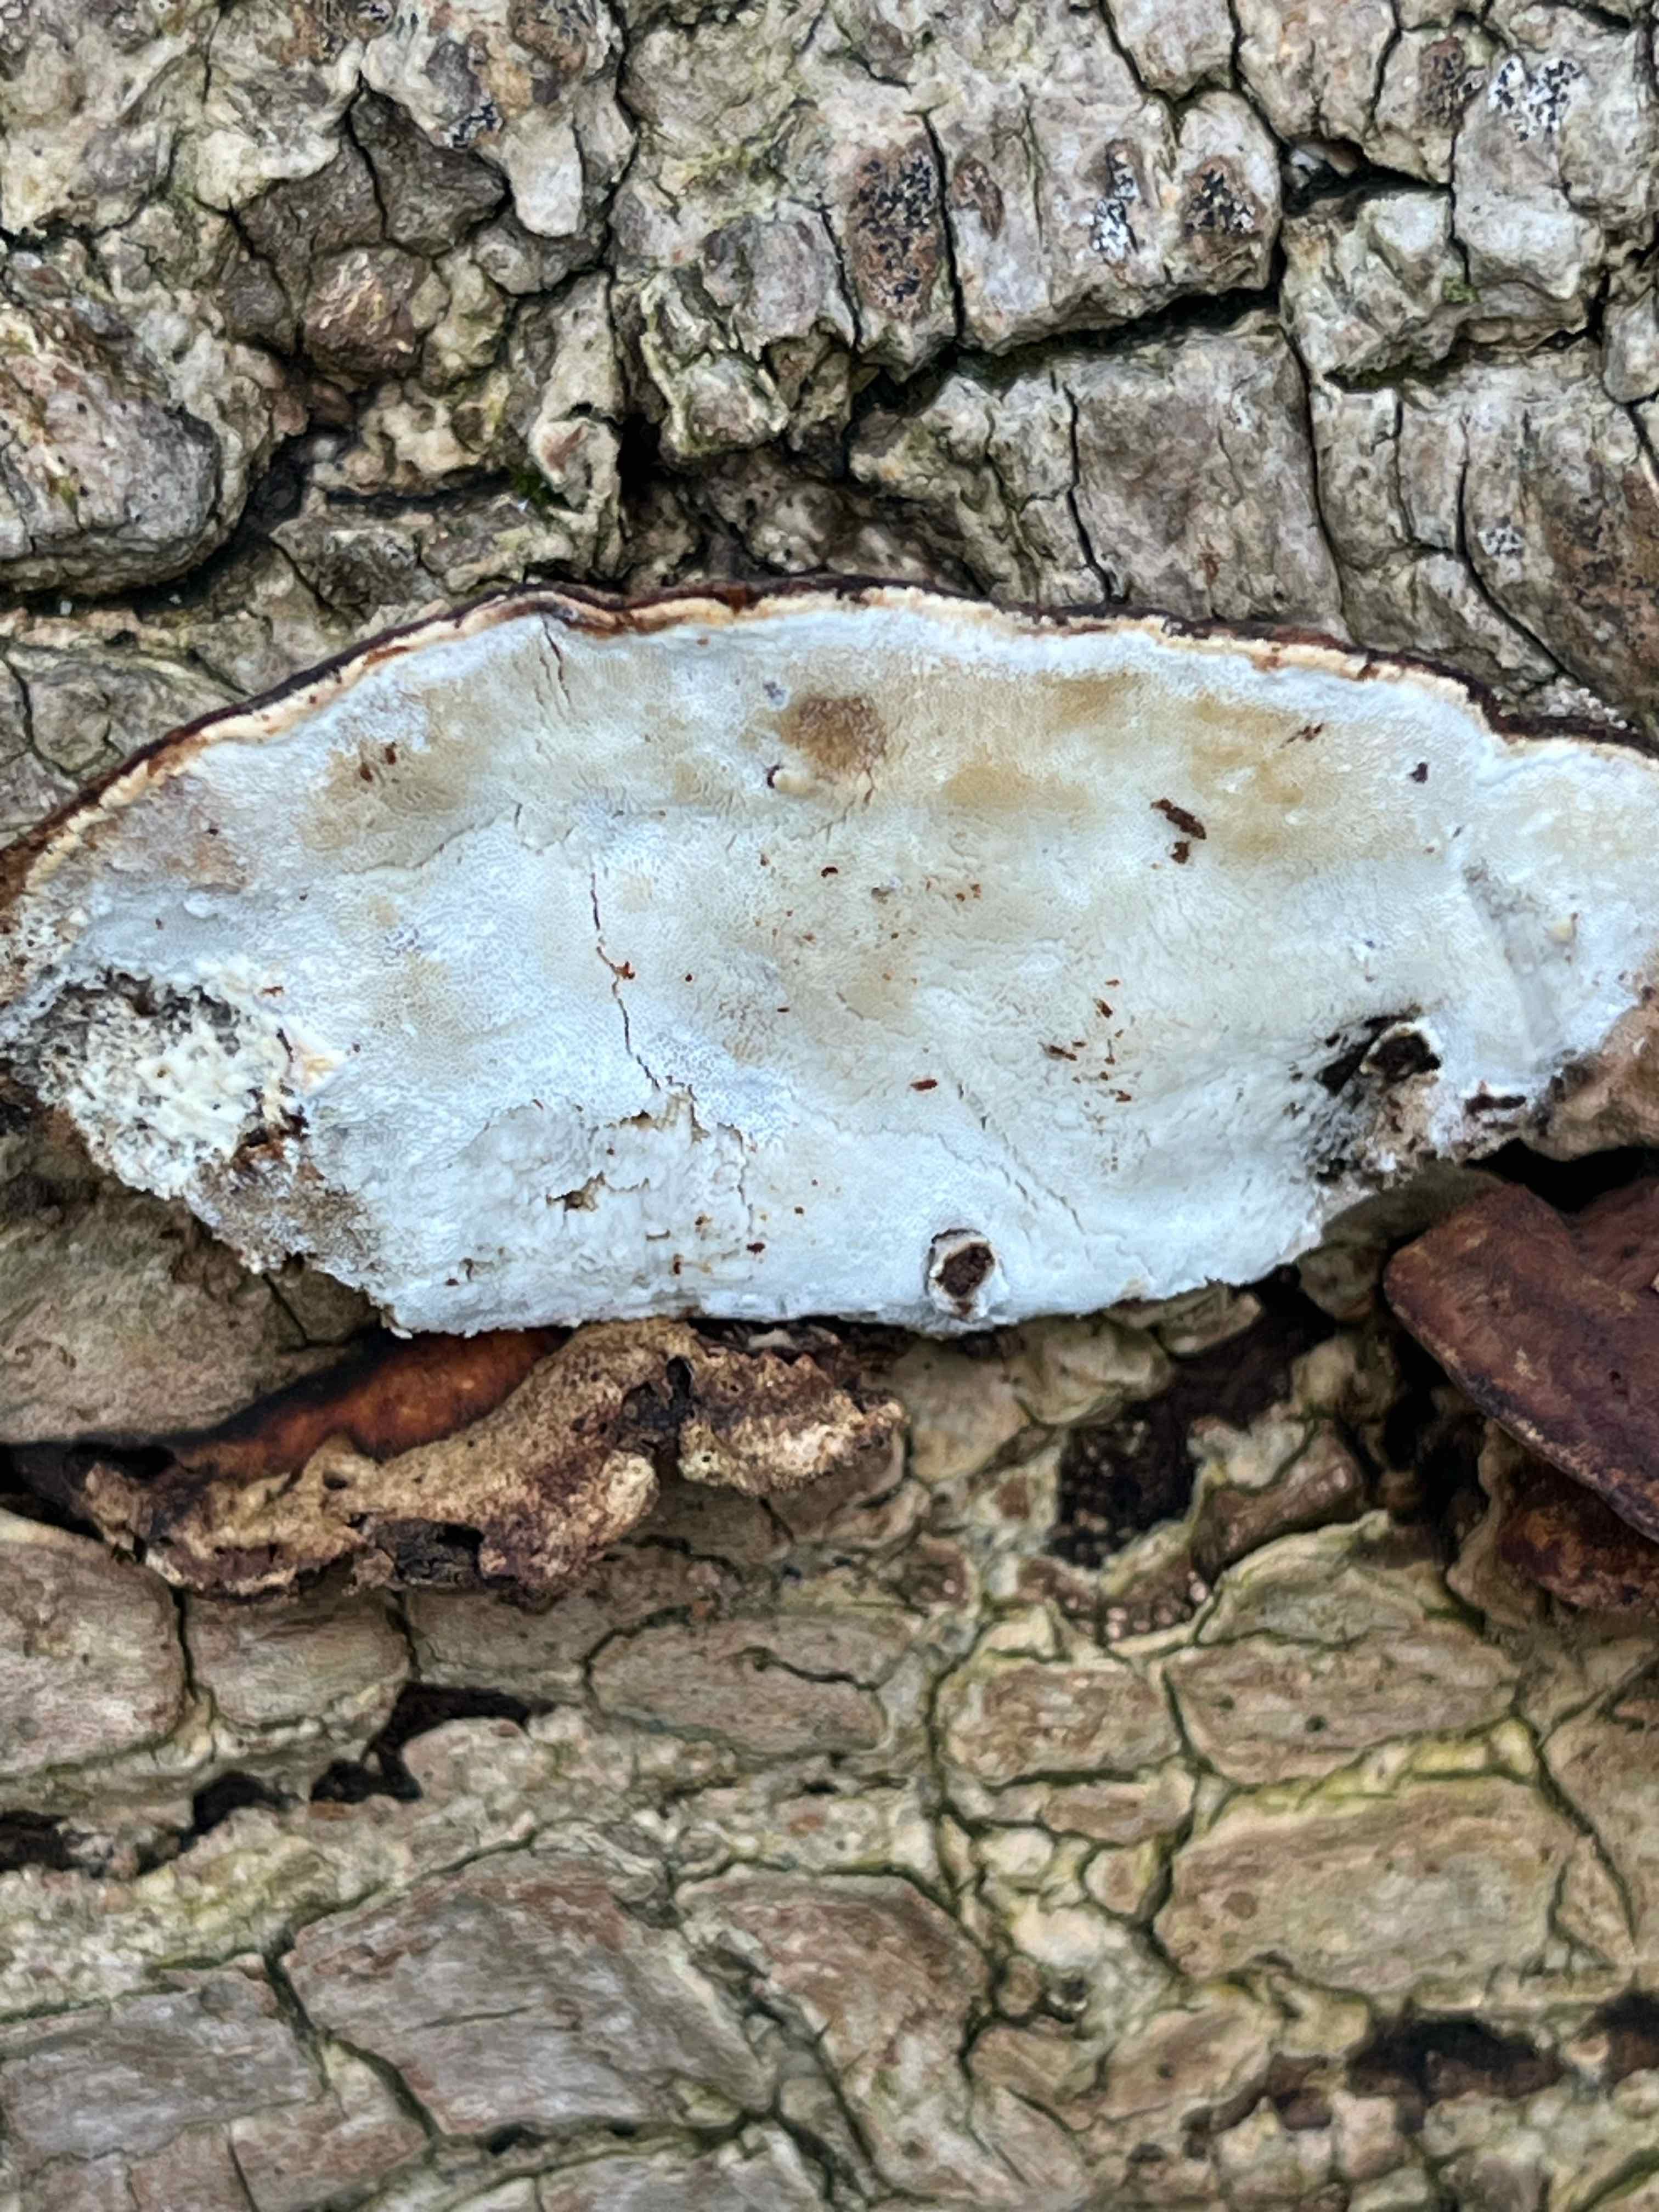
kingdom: Fungi
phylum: Basidiomycota
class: Agaricomycetes
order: Polyporales
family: Incrustoporiaceae
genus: Skeletocutis
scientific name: Skeletocutis nemoralis
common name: stor krystalporesvamp
